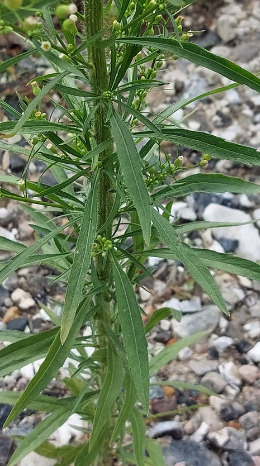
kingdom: Plantae
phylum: Tracheophyta
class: Magnoliopsida
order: Asterales
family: Asteraceae
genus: Erigeron
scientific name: Erigeron canadensis
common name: Kanadisk bakkestjerne
